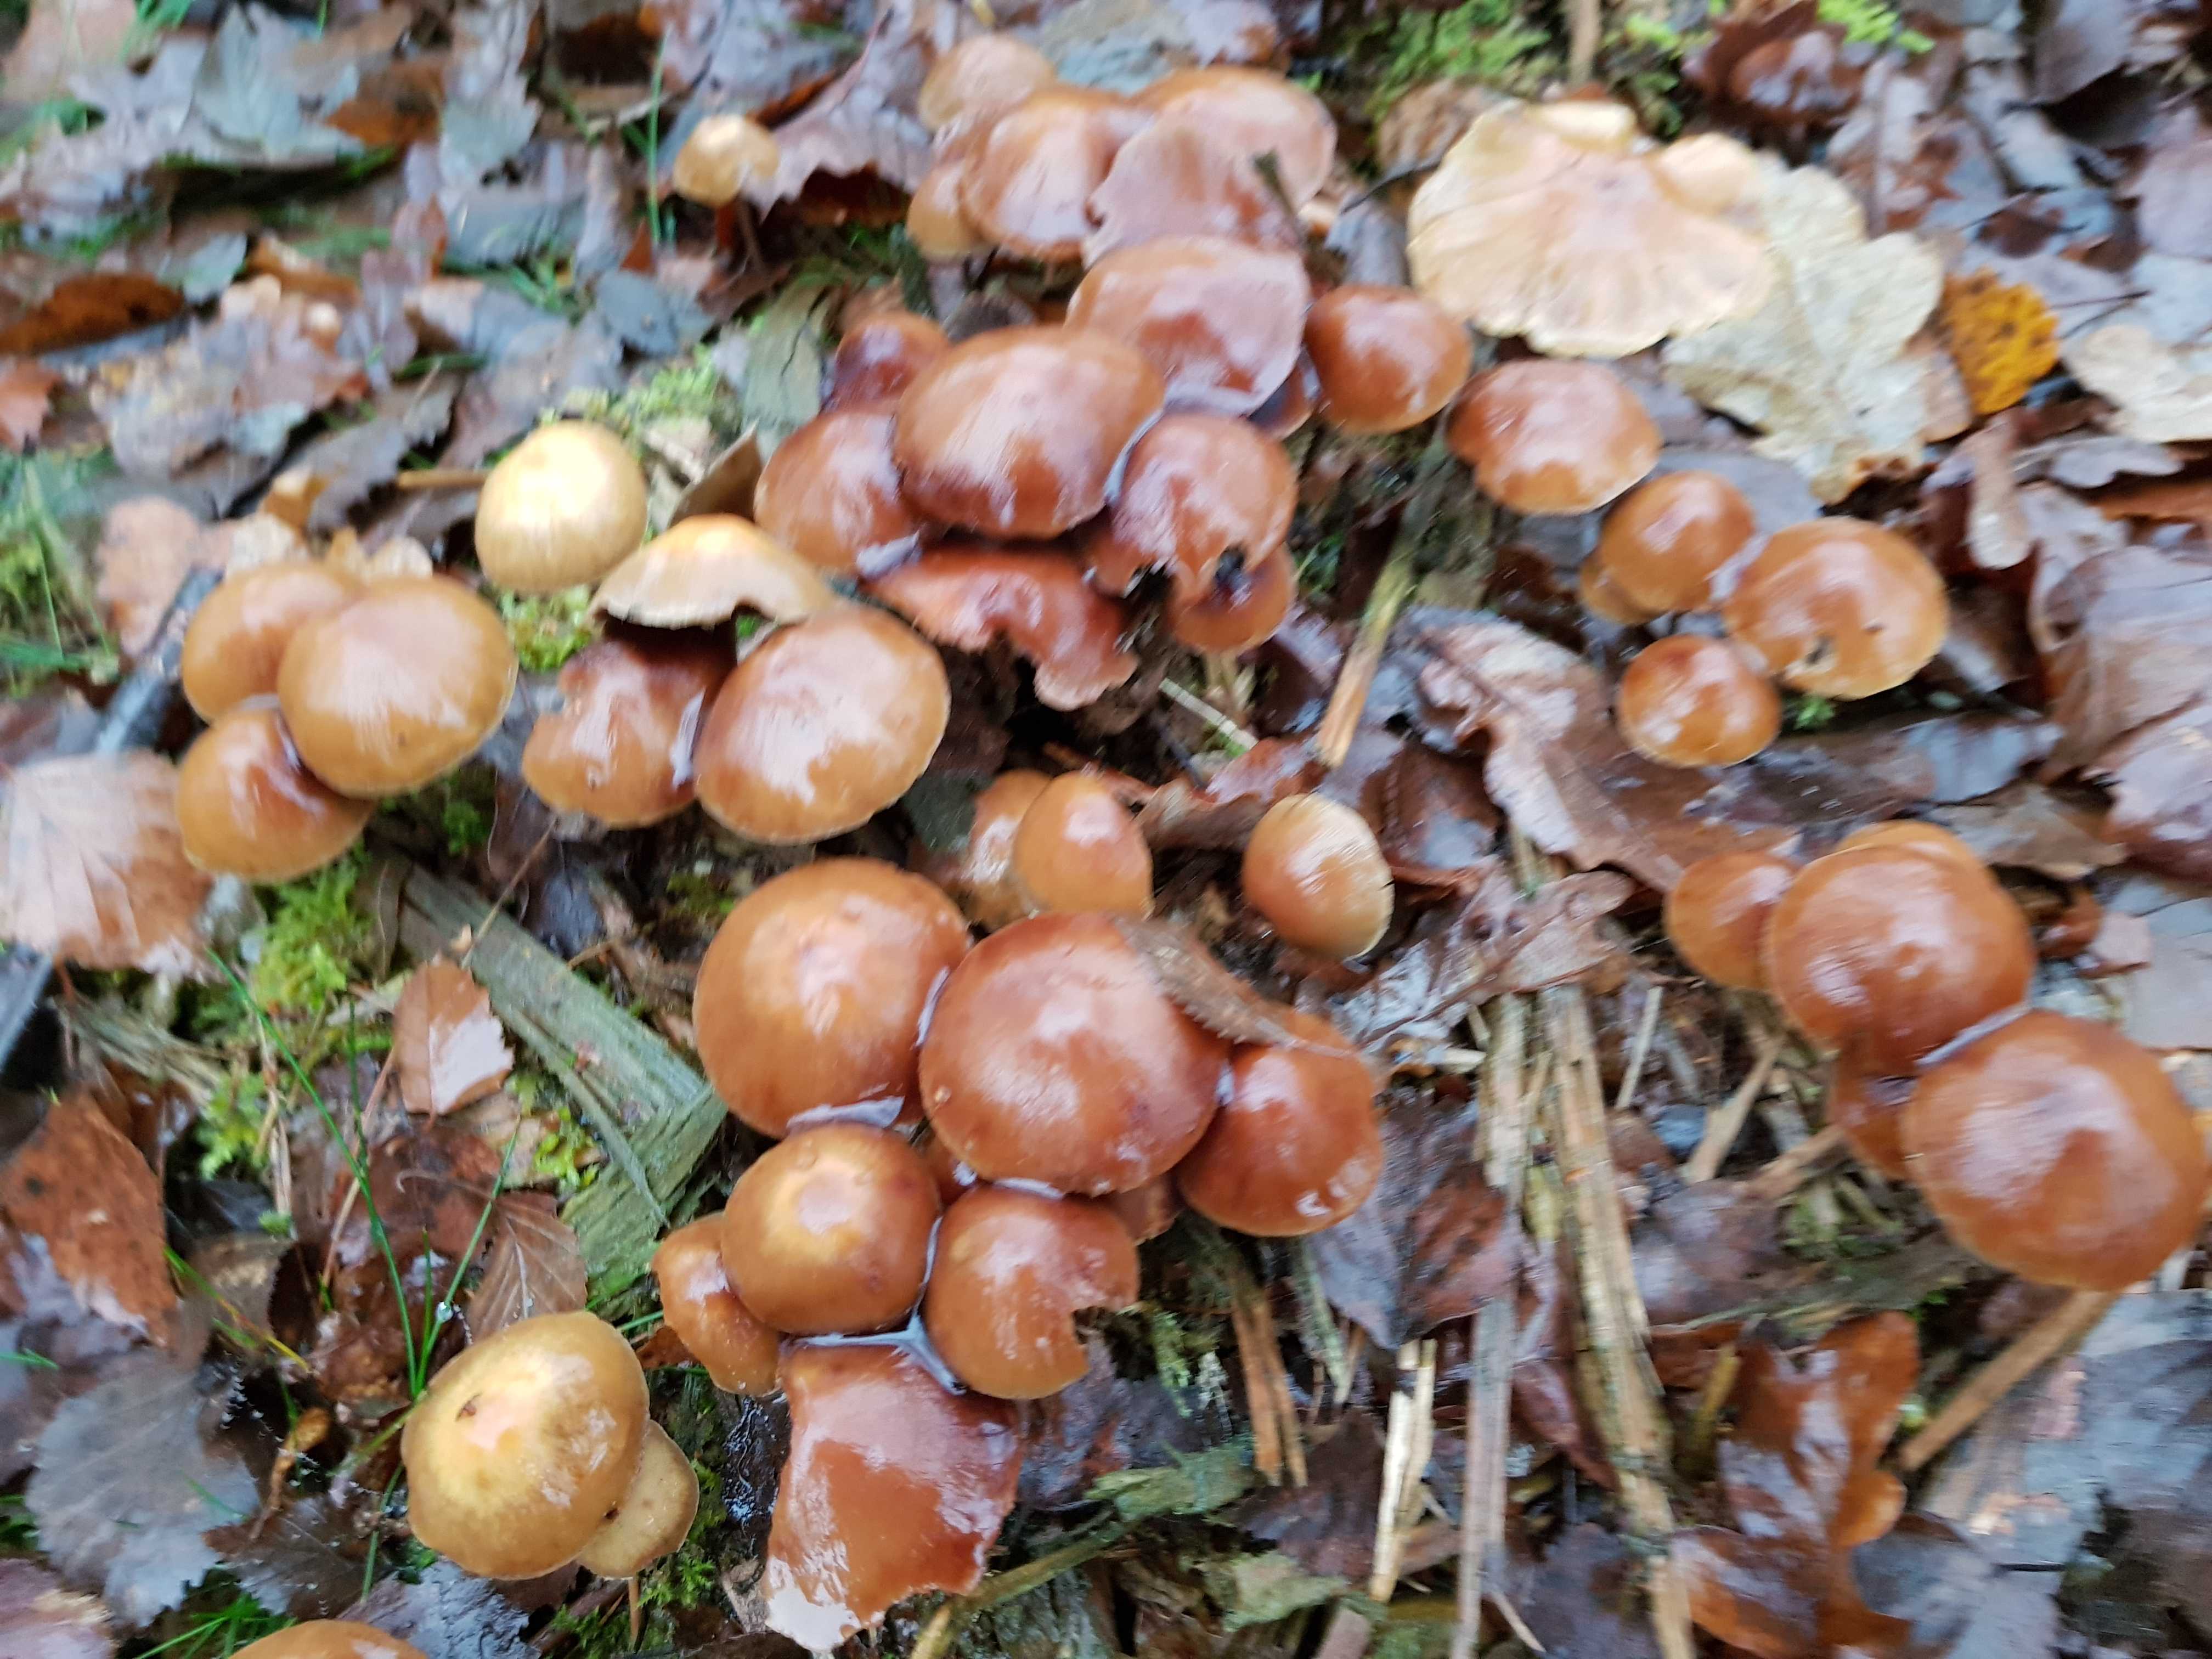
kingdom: Fungi
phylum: Basidiomycota
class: Agaricomycetes
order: Agaricales
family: Strophariaceae
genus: Hypholoma
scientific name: Hypholoma marginatum
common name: enlig svovlhat
